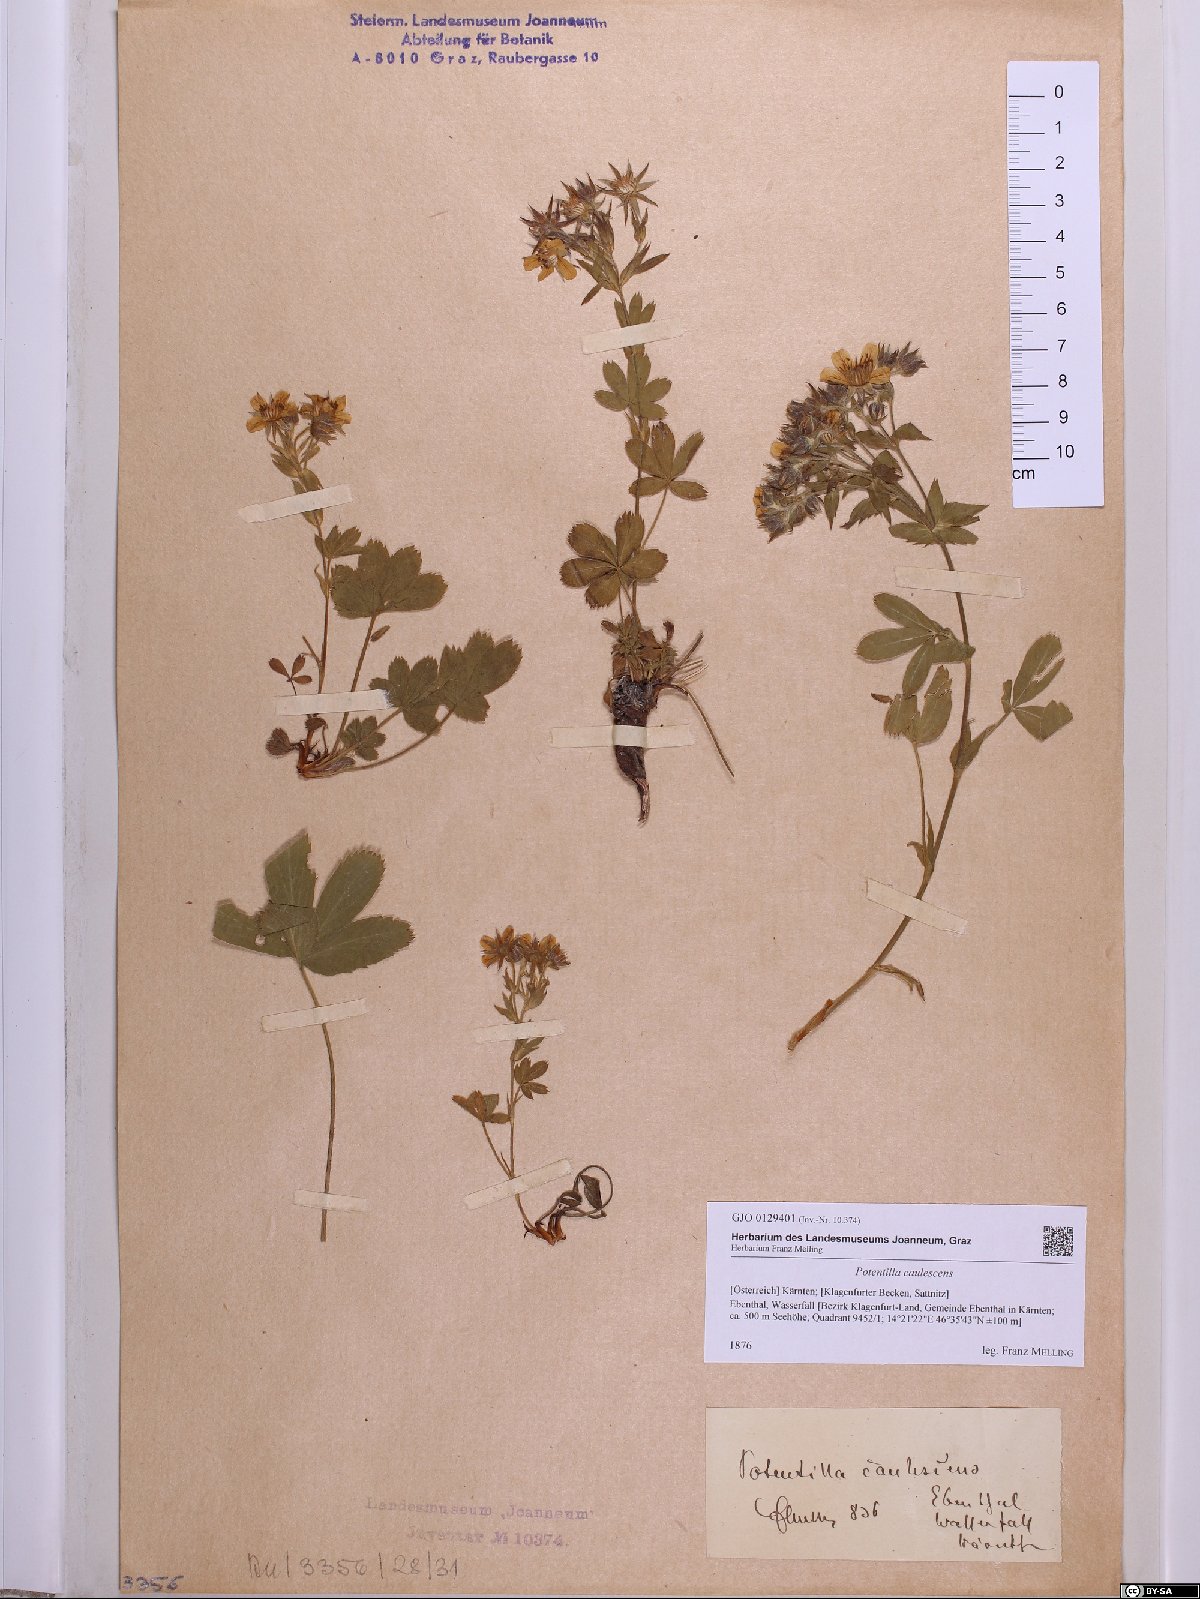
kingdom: Plantae
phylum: Tracheophyta
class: Magnoliopsida
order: Rosales
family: Rosaceae
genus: Potentilla
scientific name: Potentilla caulescens
